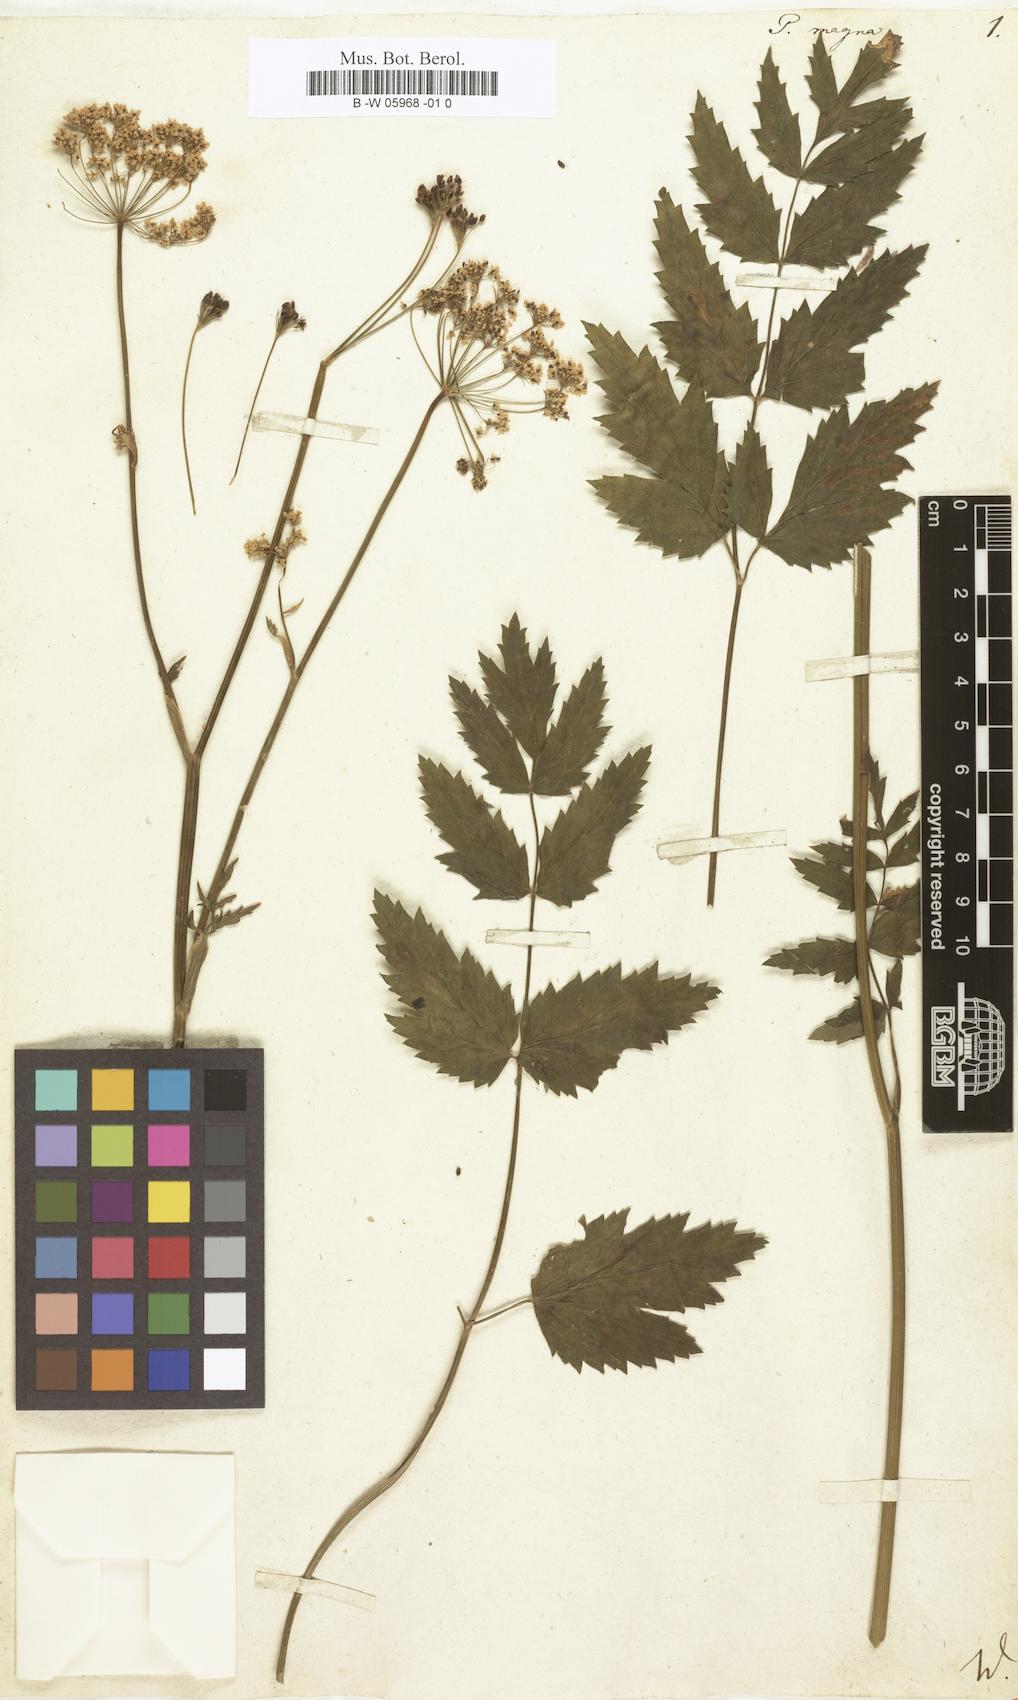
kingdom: Plantae
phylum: Tracheophyta
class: Magnoliopsida
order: Apiales
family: Apiaceae
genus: Pimpinella
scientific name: Pimpinella
